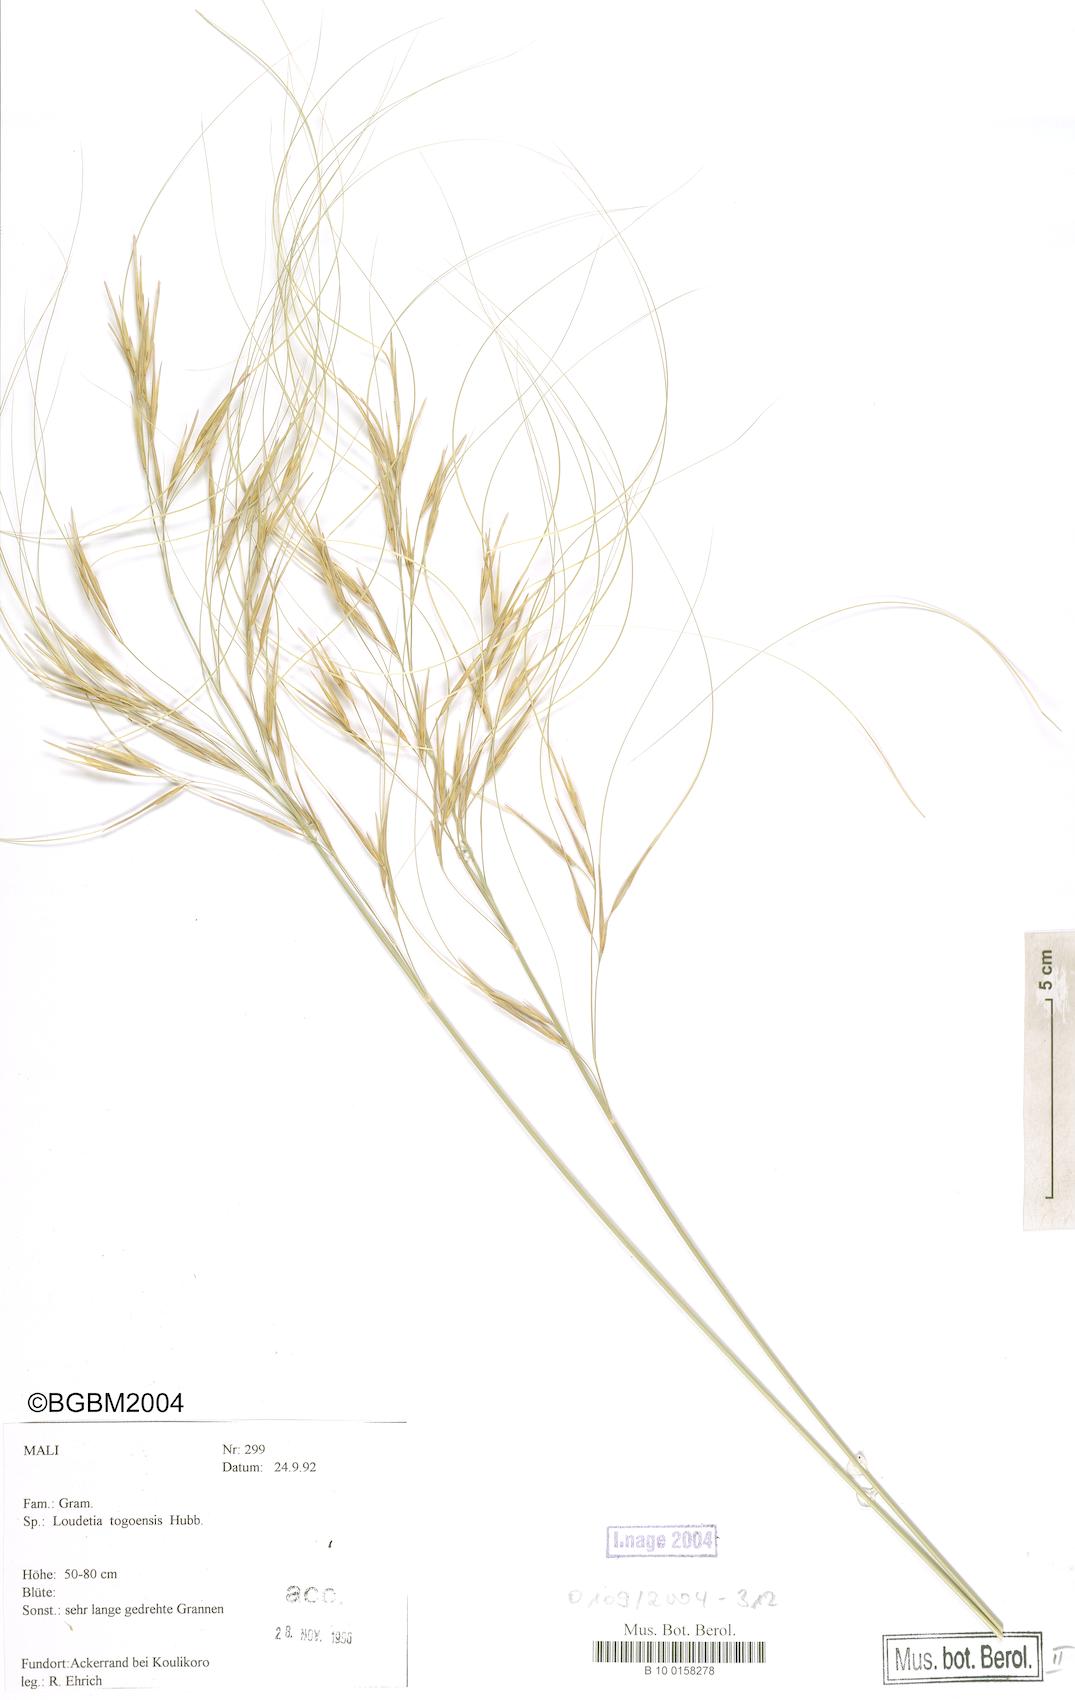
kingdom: Plantae
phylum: Tracheophyta
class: Liliopsida
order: Poales
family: Poaceae
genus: Loudetia
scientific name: Loudetia togoensis
